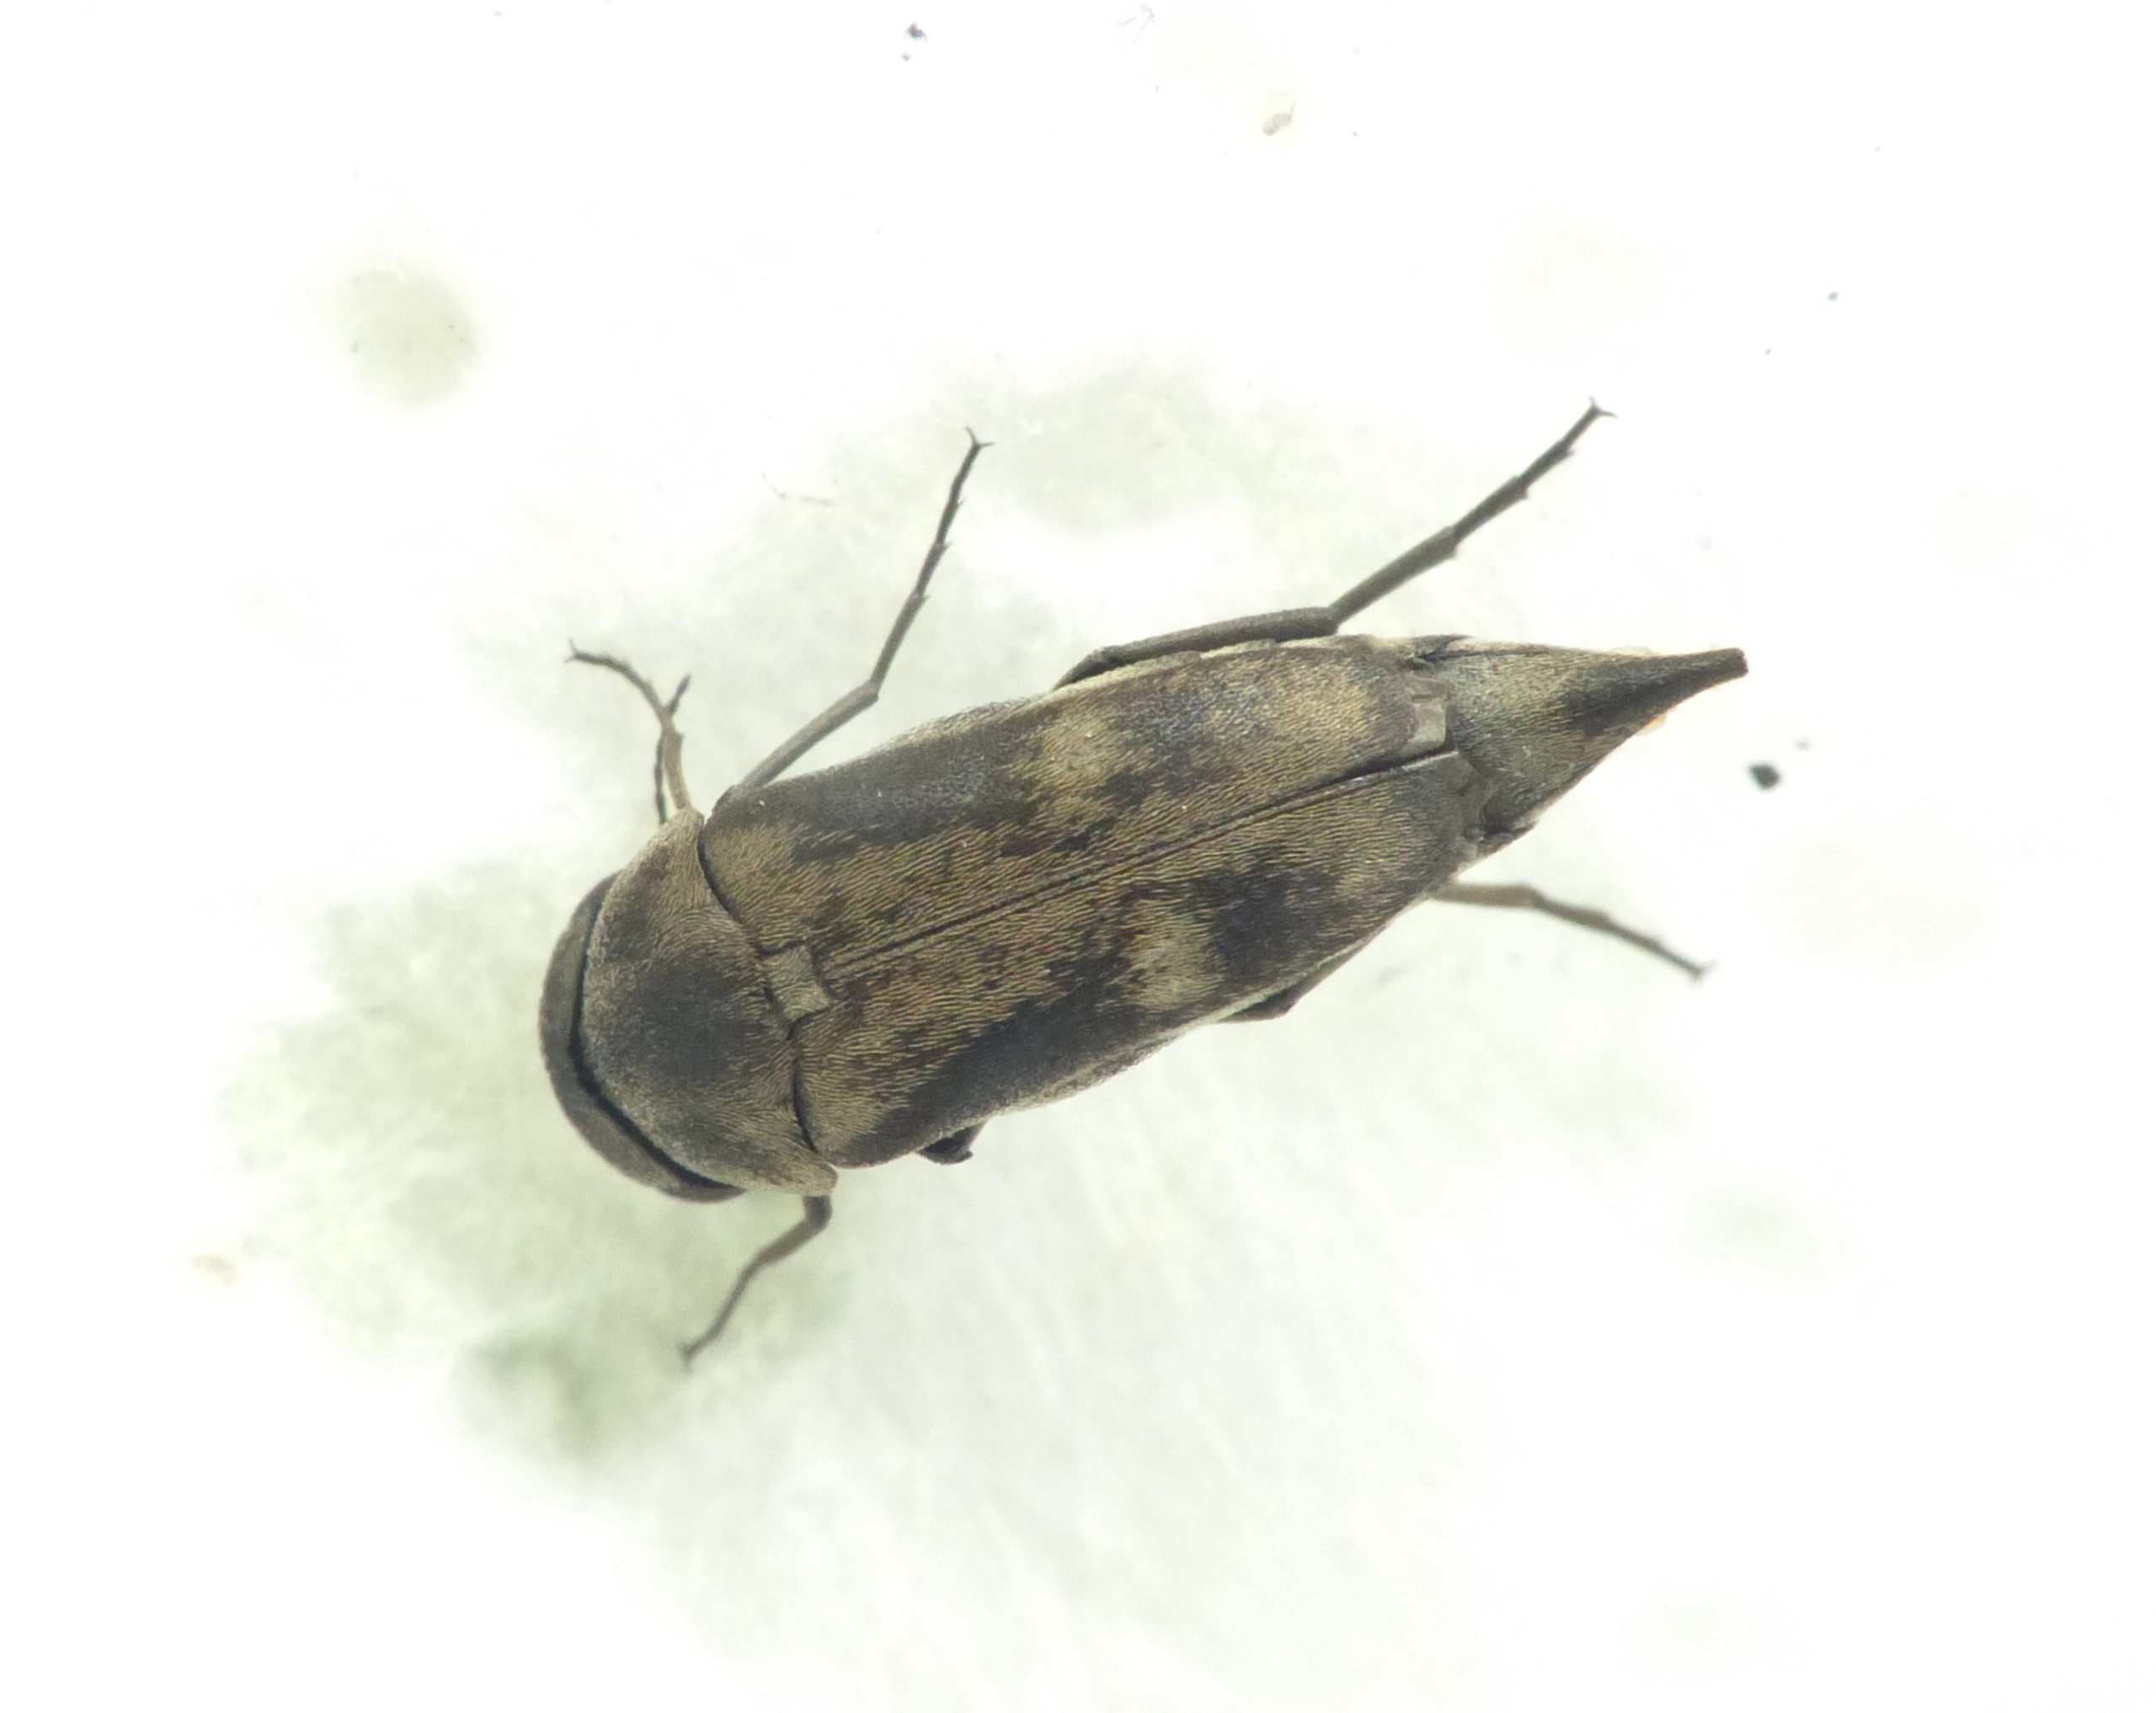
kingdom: Animalia
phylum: Arthropoda
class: Insecta
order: Coleoptera
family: Mordellidae
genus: Tomoxia
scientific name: Tomoxia bucephala
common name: Toplettet brodbille
